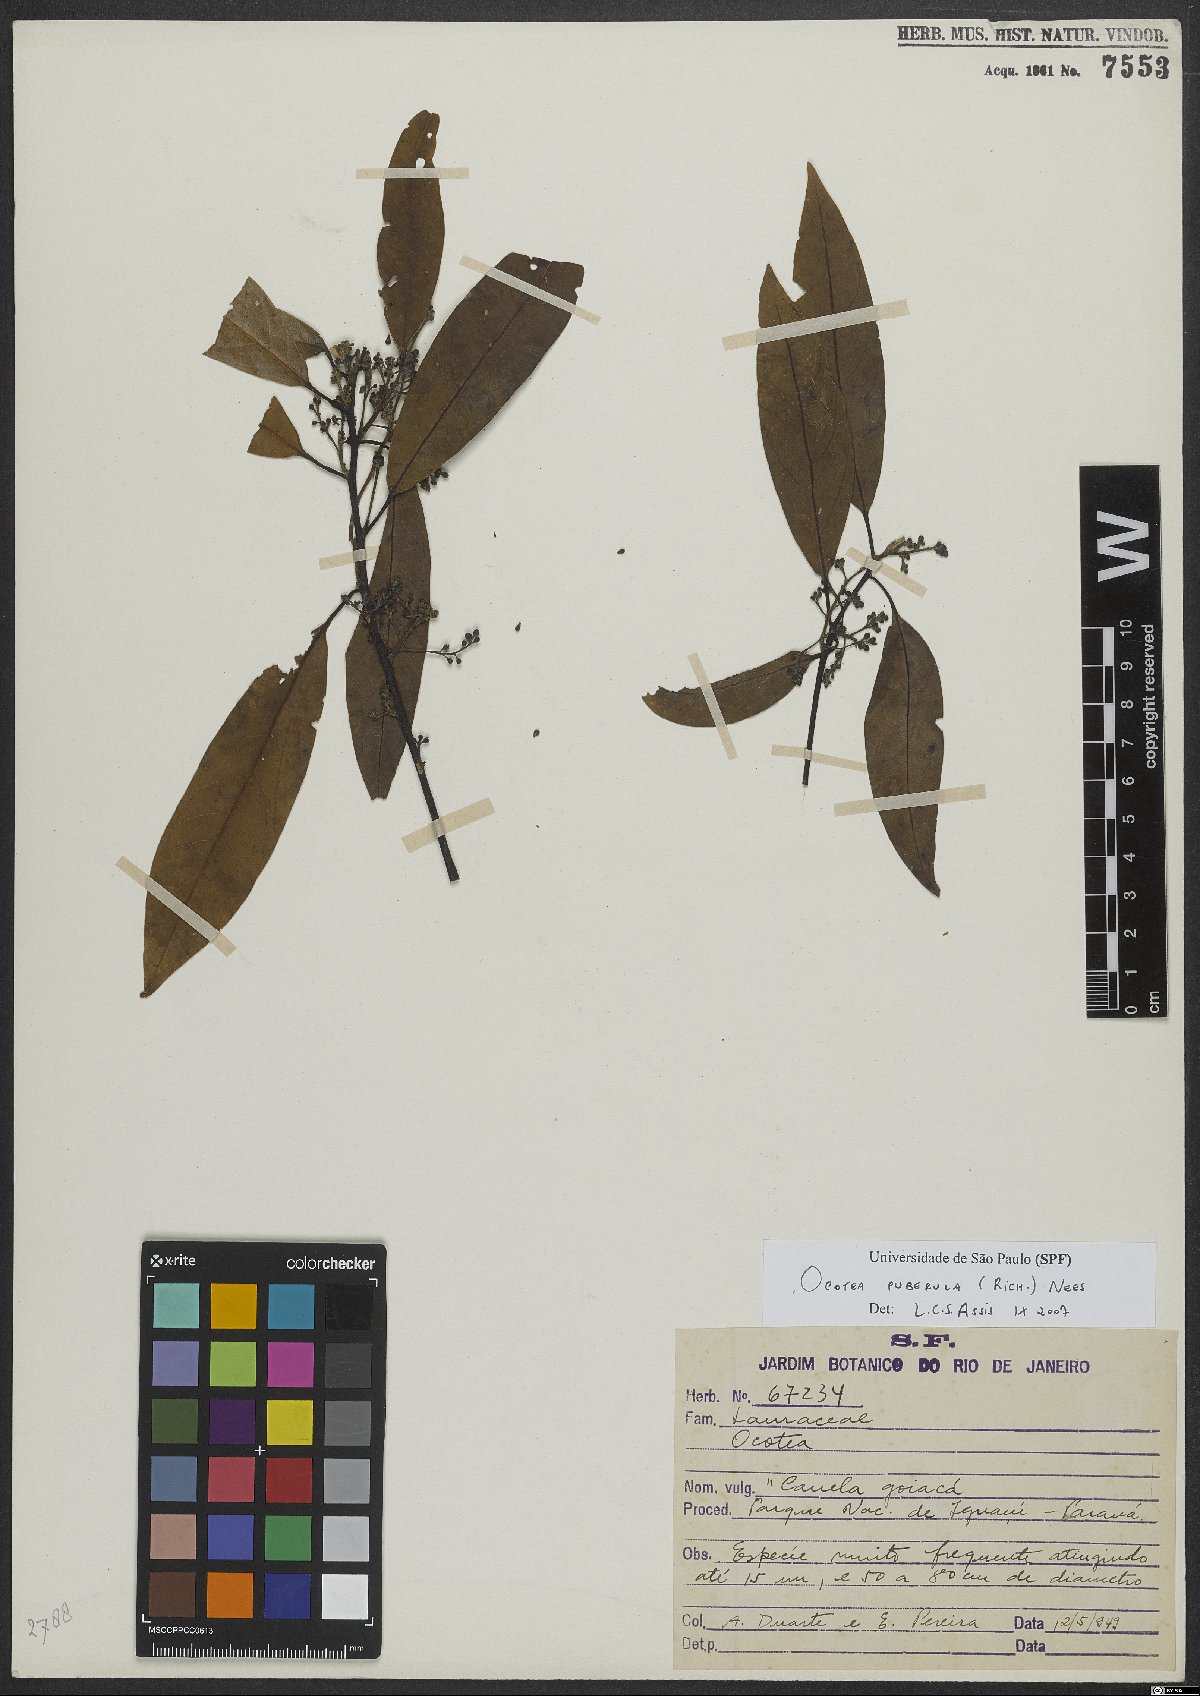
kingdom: Plantae
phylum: Tracheophyta
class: Magnoliopsida
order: Laurales
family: Lauraceae
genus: Ocotea
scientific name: Ocotea puberula
